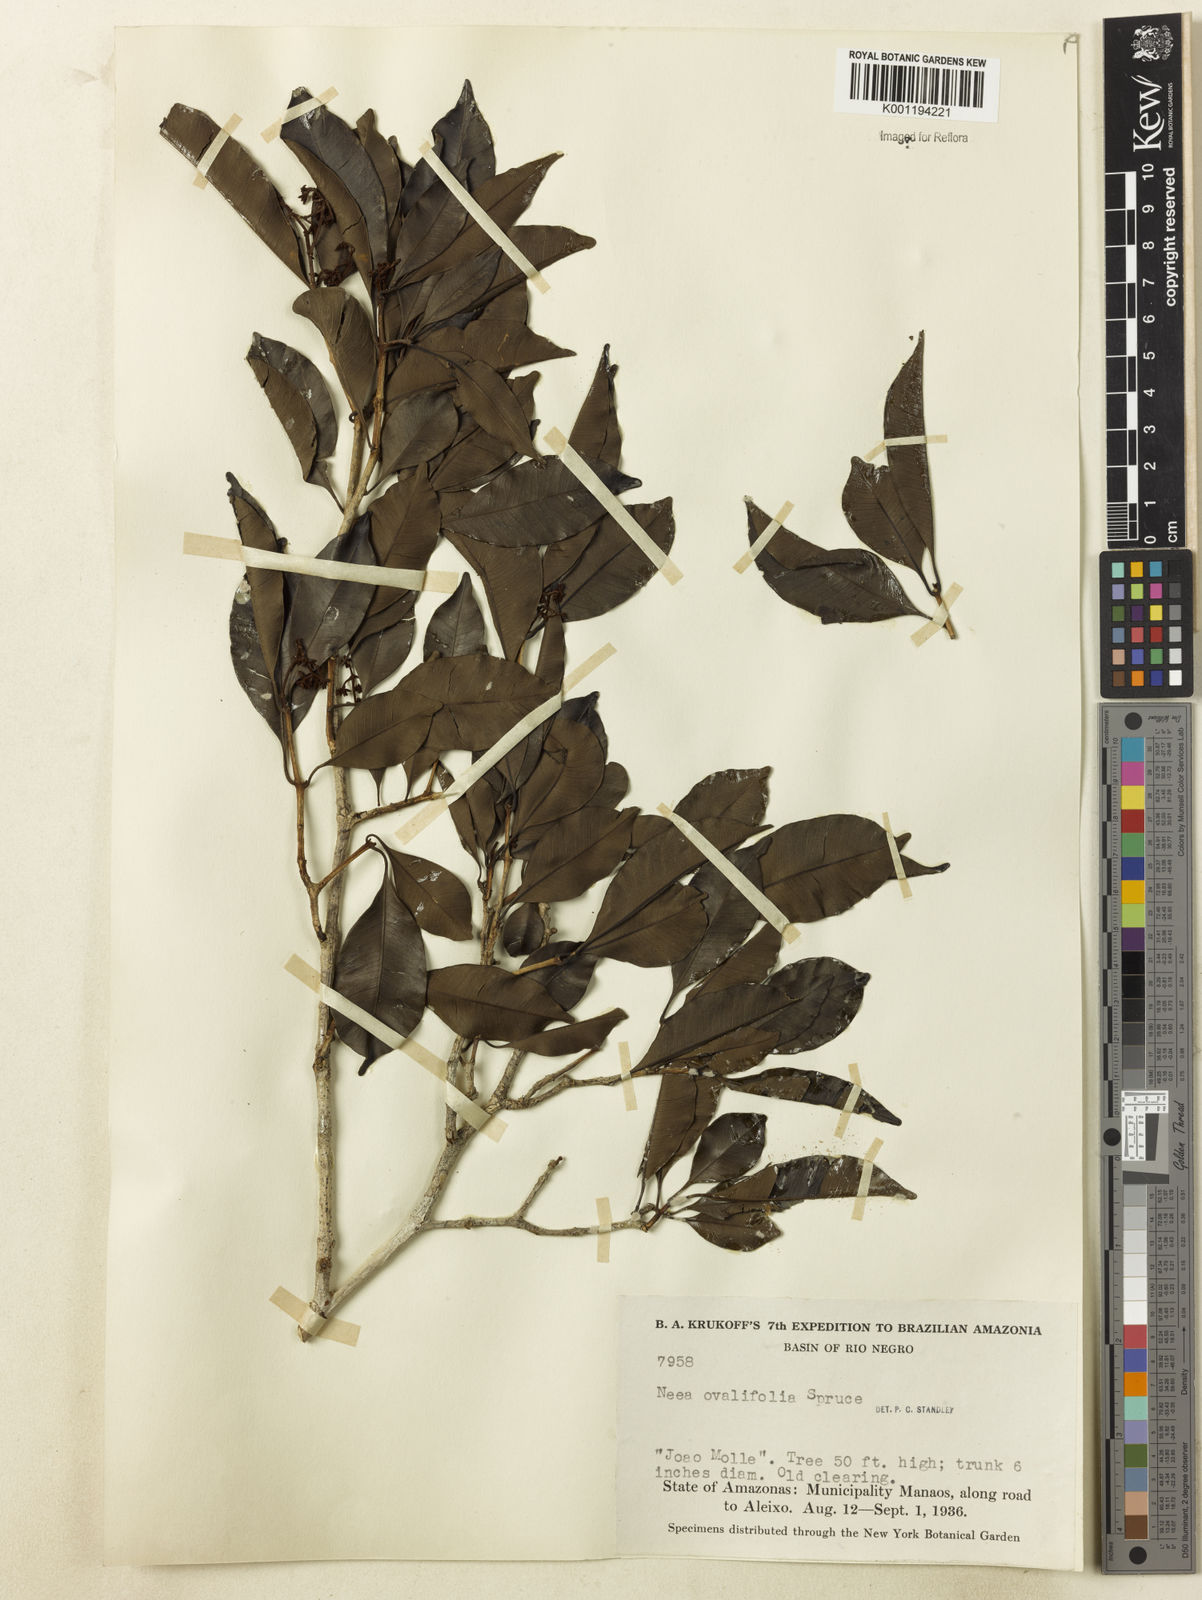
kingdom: Plantae
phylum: Tracheophyta
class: Magnoliopsida
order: Caryophyllales
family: Nyctaginaceae
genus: Neea
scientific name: Neea ovalifolia
